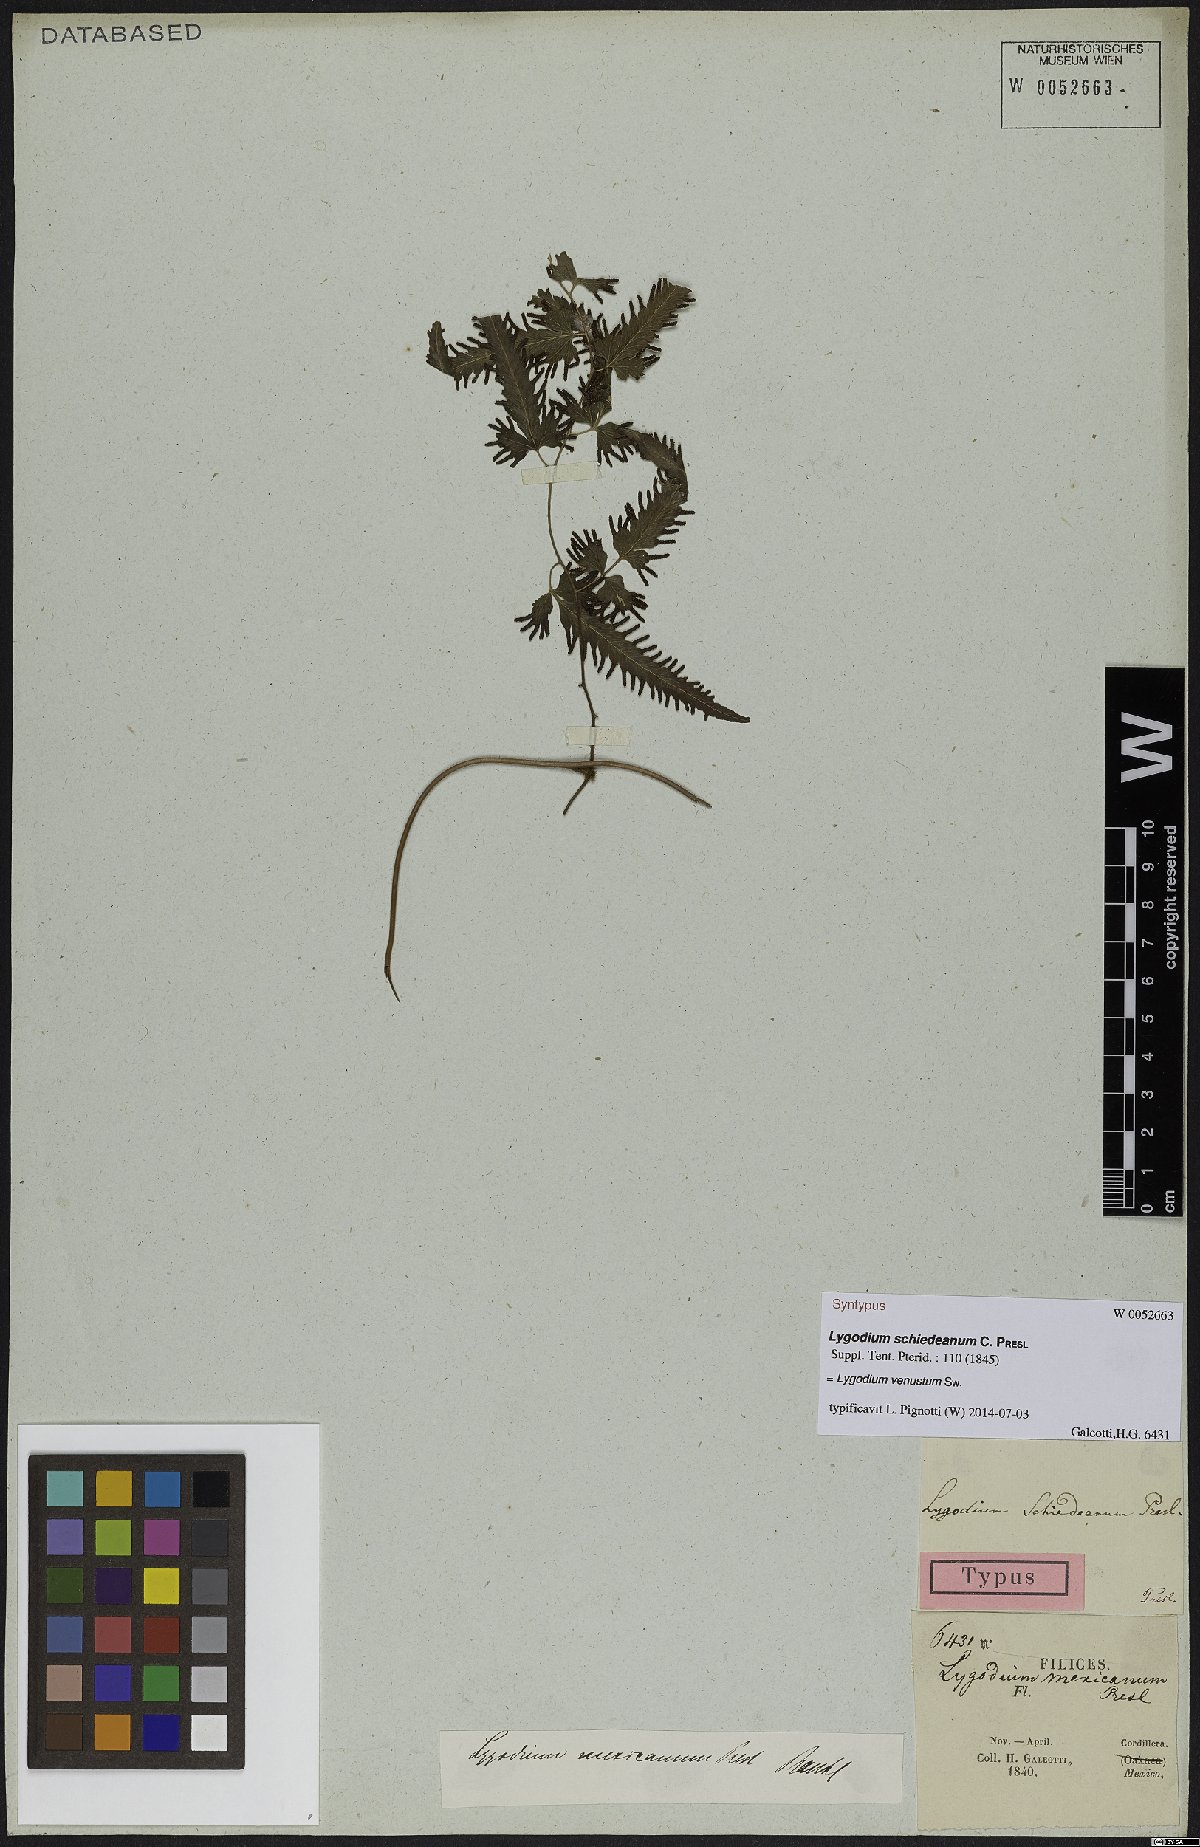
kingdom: Plantae
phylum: Tracheophyta
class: Polypodiopsida
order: Schizaeales
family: Lygodiaceae
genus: Lygodium
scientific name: Lygodium venustum
